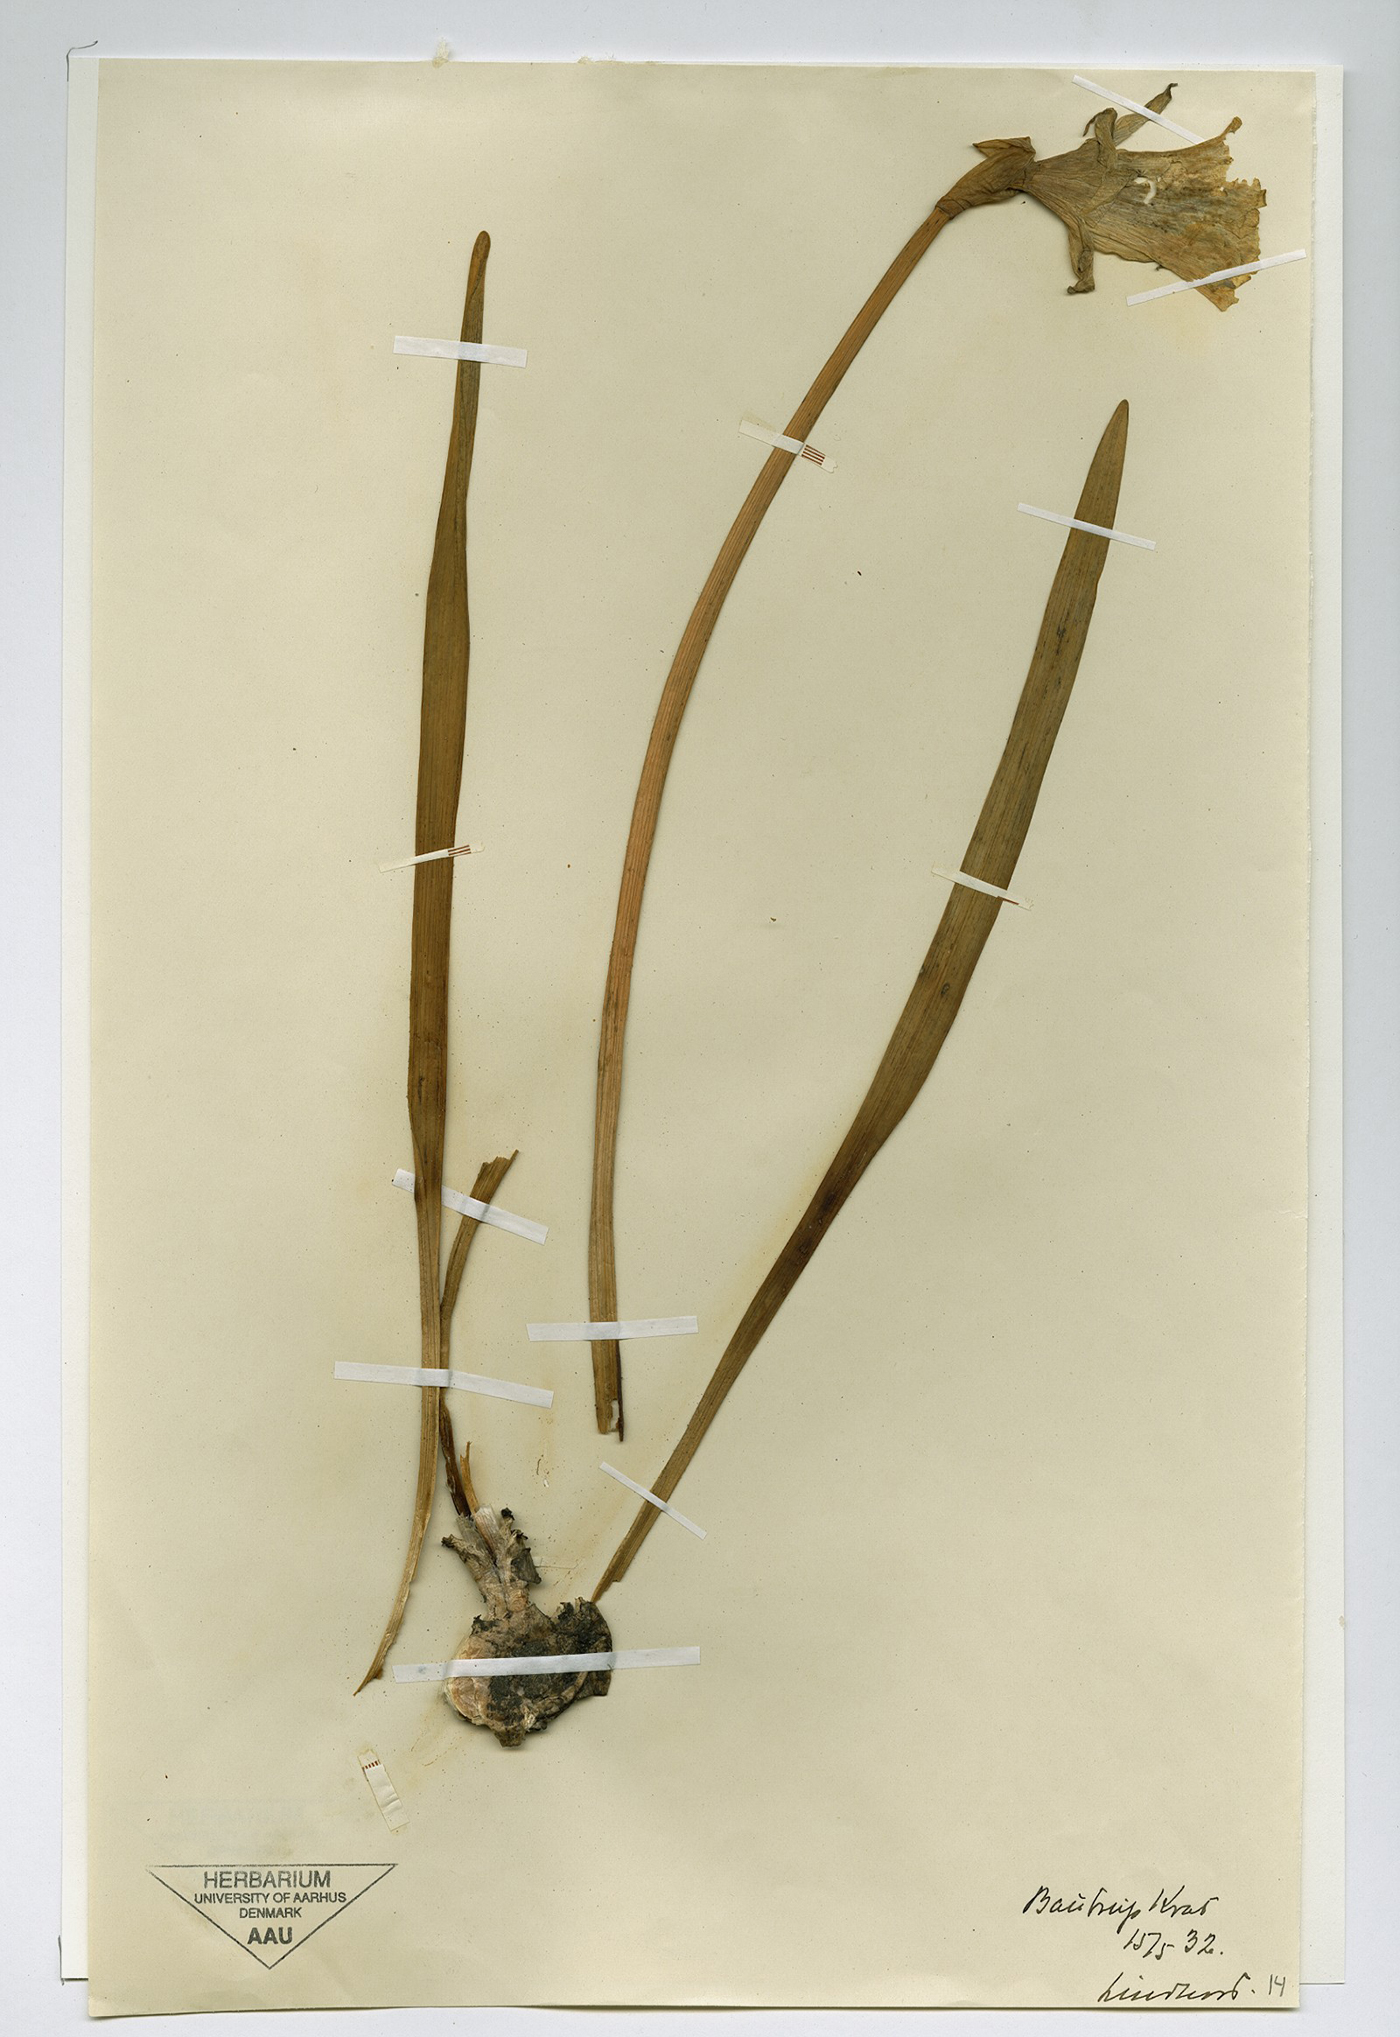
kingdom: Plantae
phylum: Tracheophyta
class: Liliopsida
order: Asparagales
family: Amaryllidaceae
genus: Narcissus
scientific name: Narcissus pseudonarcissus
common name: Daffodil
